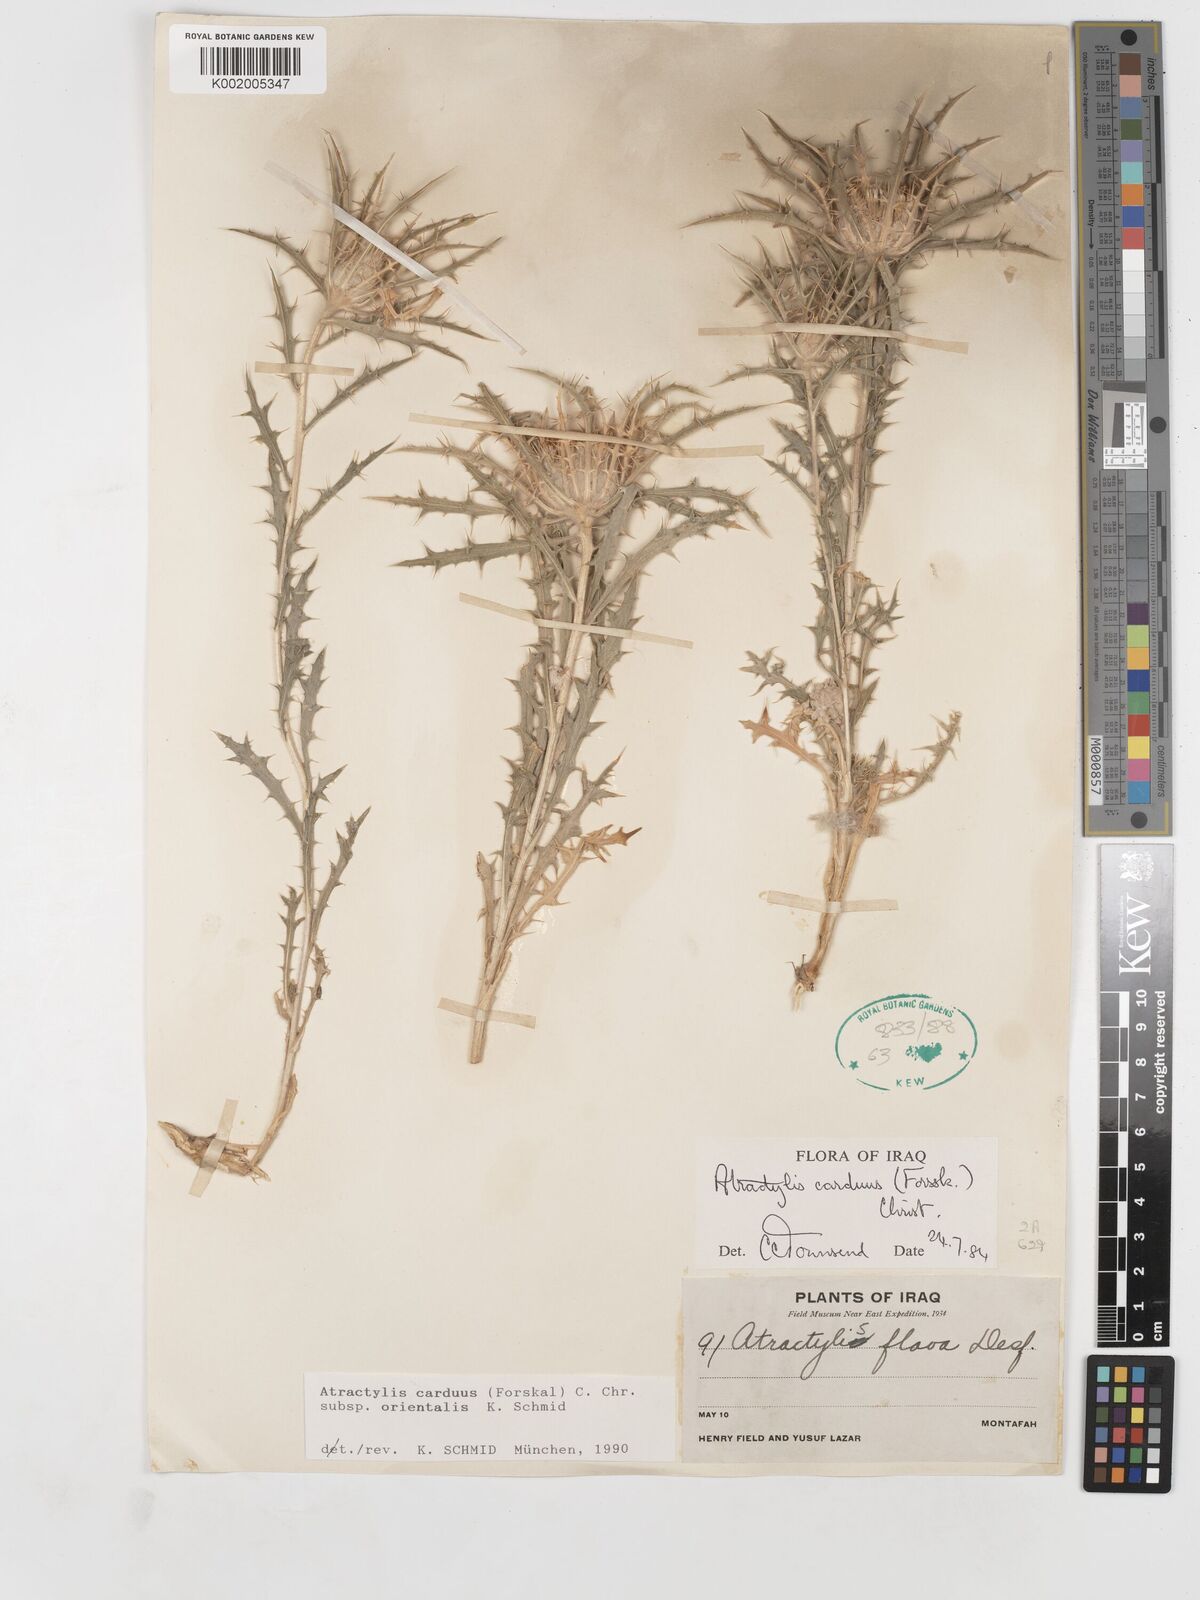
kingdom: Plantae
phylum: Tracheophyta
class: Magnoliopsida
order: Asterales
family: Asteraceae
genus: Atractylis
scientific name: Atractylis carduus
